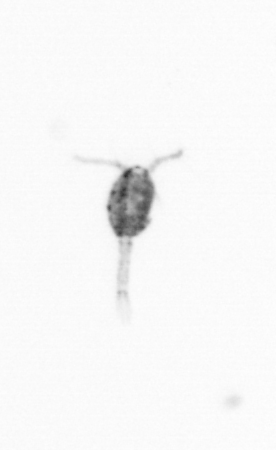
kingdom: Animalia
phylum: Arthropoda
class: Copepoda
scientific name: Copepoda
